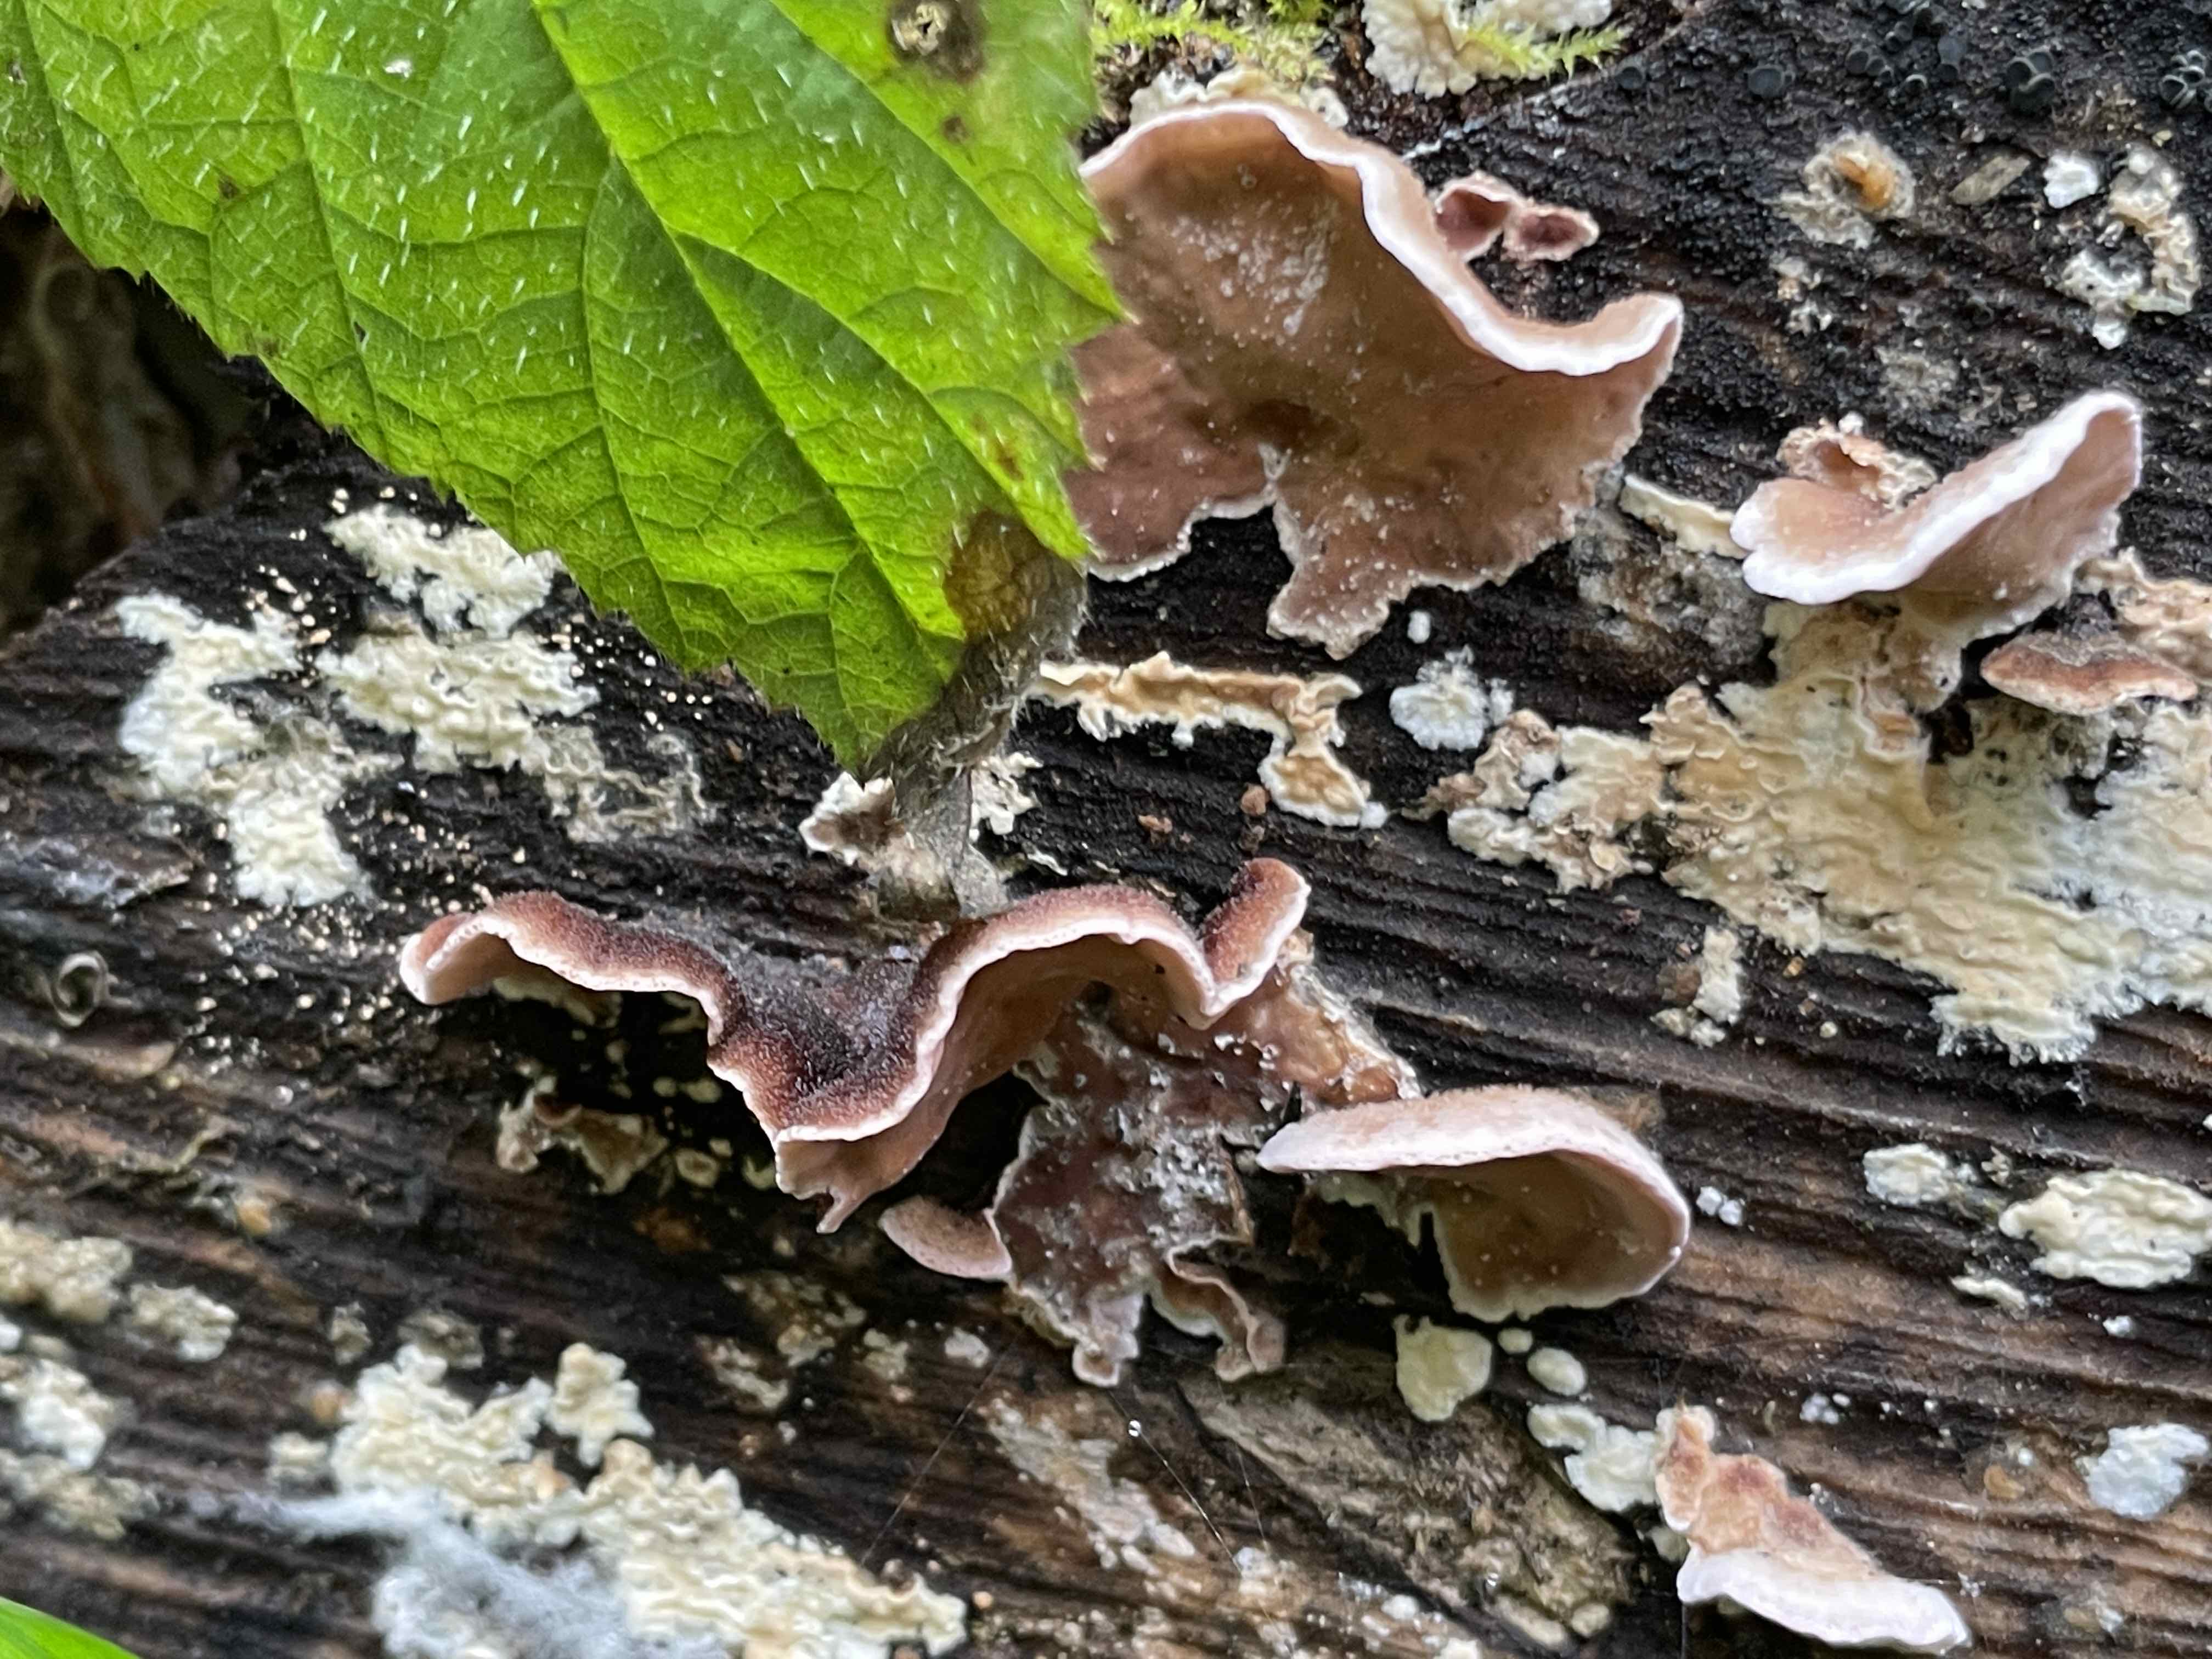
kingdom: Fungi
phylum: Basidiomycota
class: Agaricomycetes
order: Agaricales
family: Cyphellaceae
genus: Chondrostereum
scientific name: Chondrostereum purpureum
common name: purpurlædersvamp
